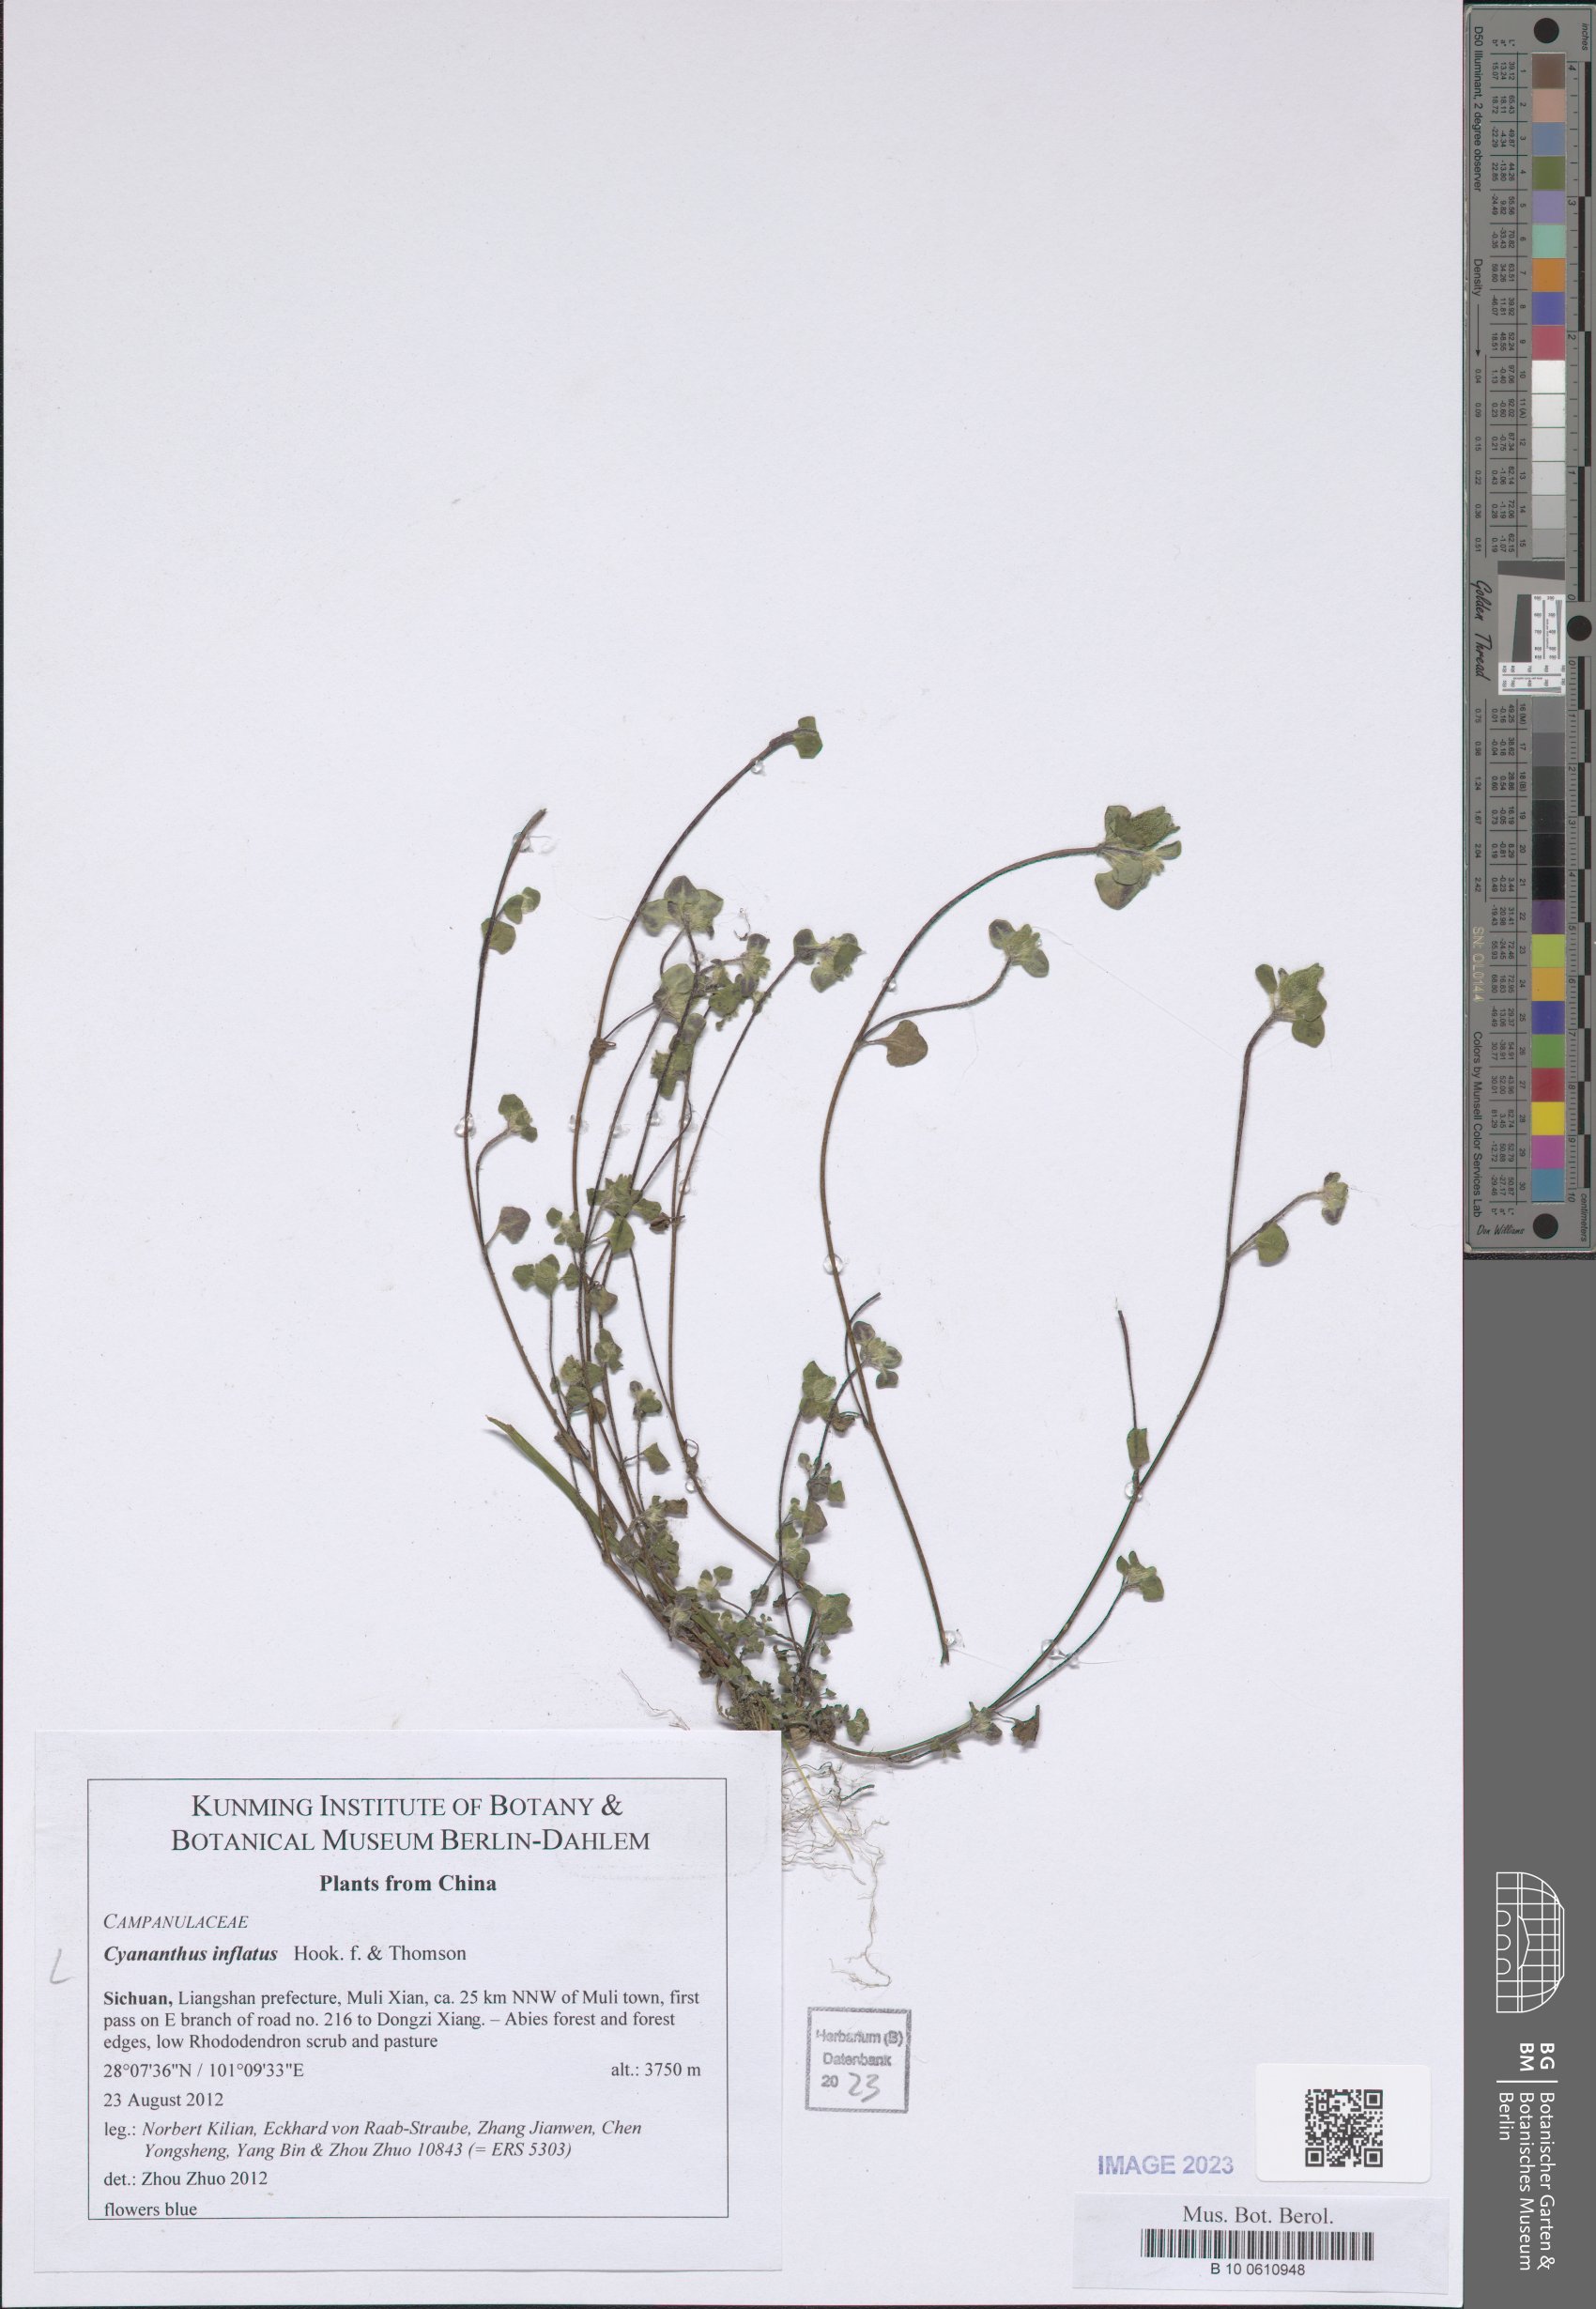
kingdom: Plantae
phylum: Tracheophyta
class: Magnoliopsida
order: Asterales
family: Campanulaceae
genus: Cyananthus
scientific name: Cyananthus inflatus
